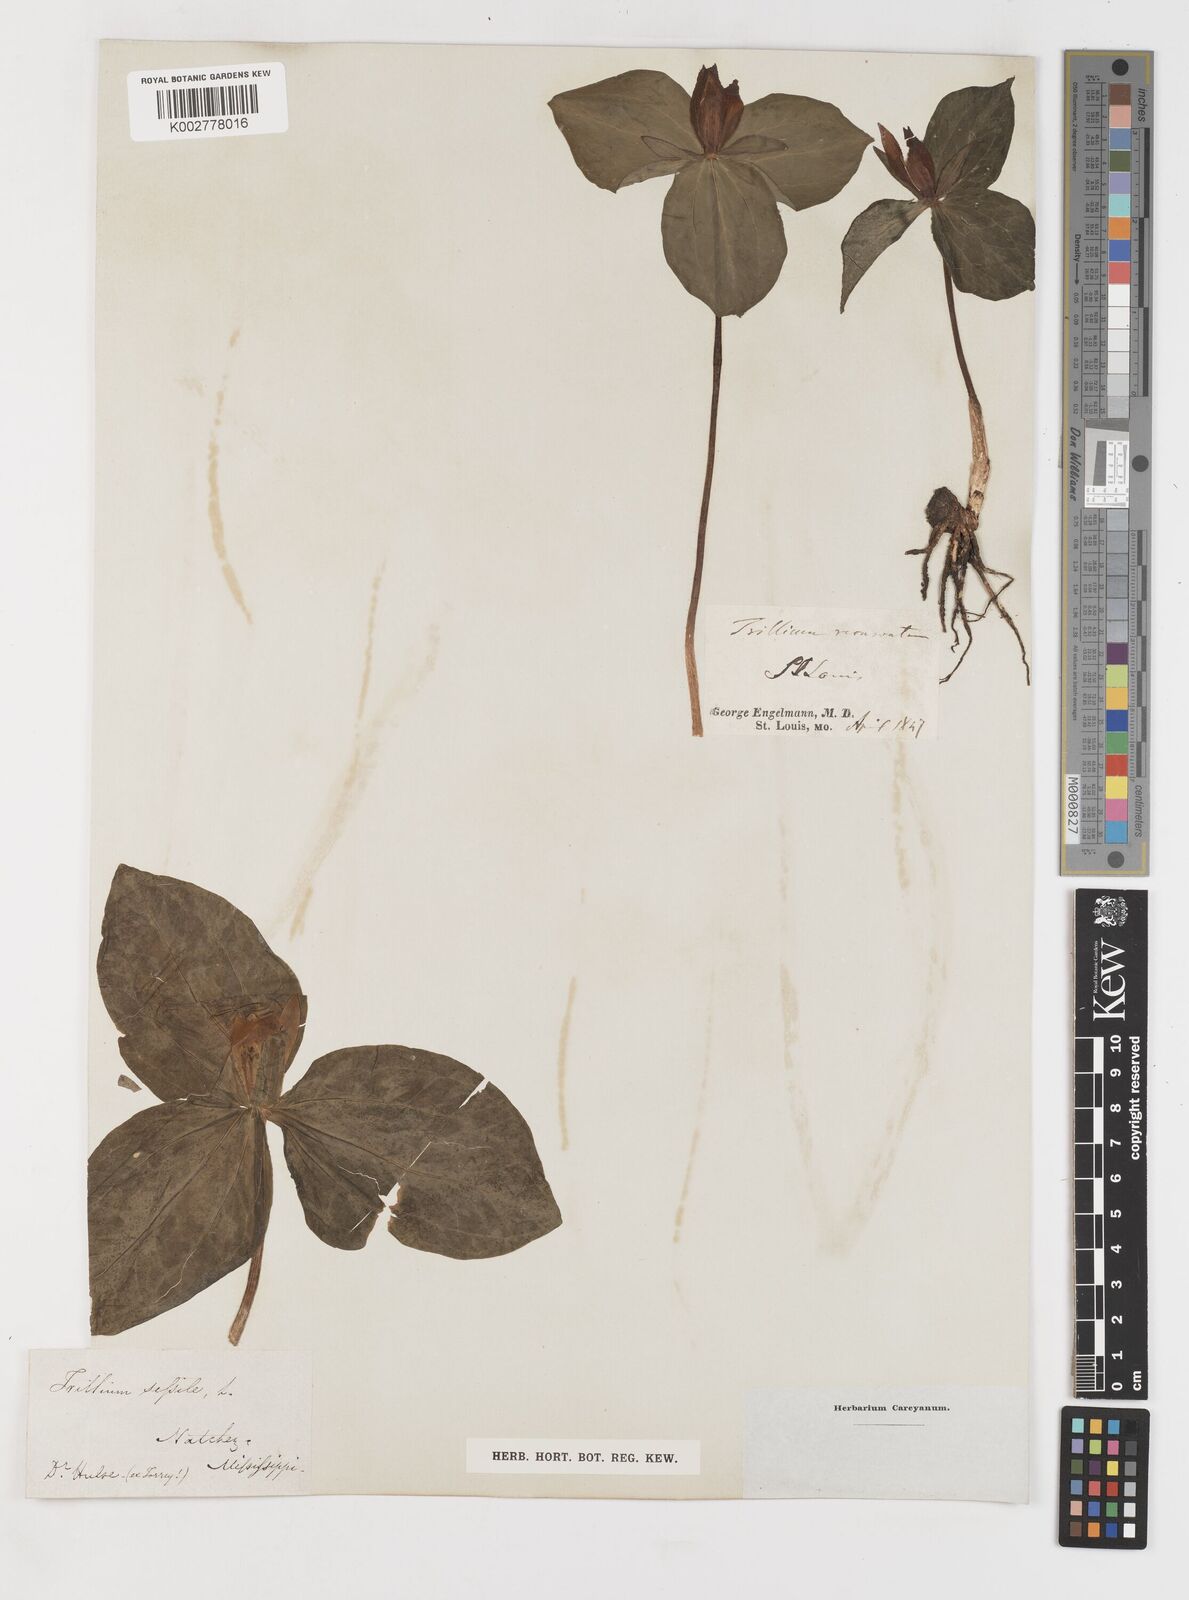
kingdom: Plantae
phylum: Tracheophyta
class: Liliopsida
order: Liliales
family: Melanthiaceae
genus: Trillium
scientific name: Trillium recurvatum
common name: Bloody butcher
